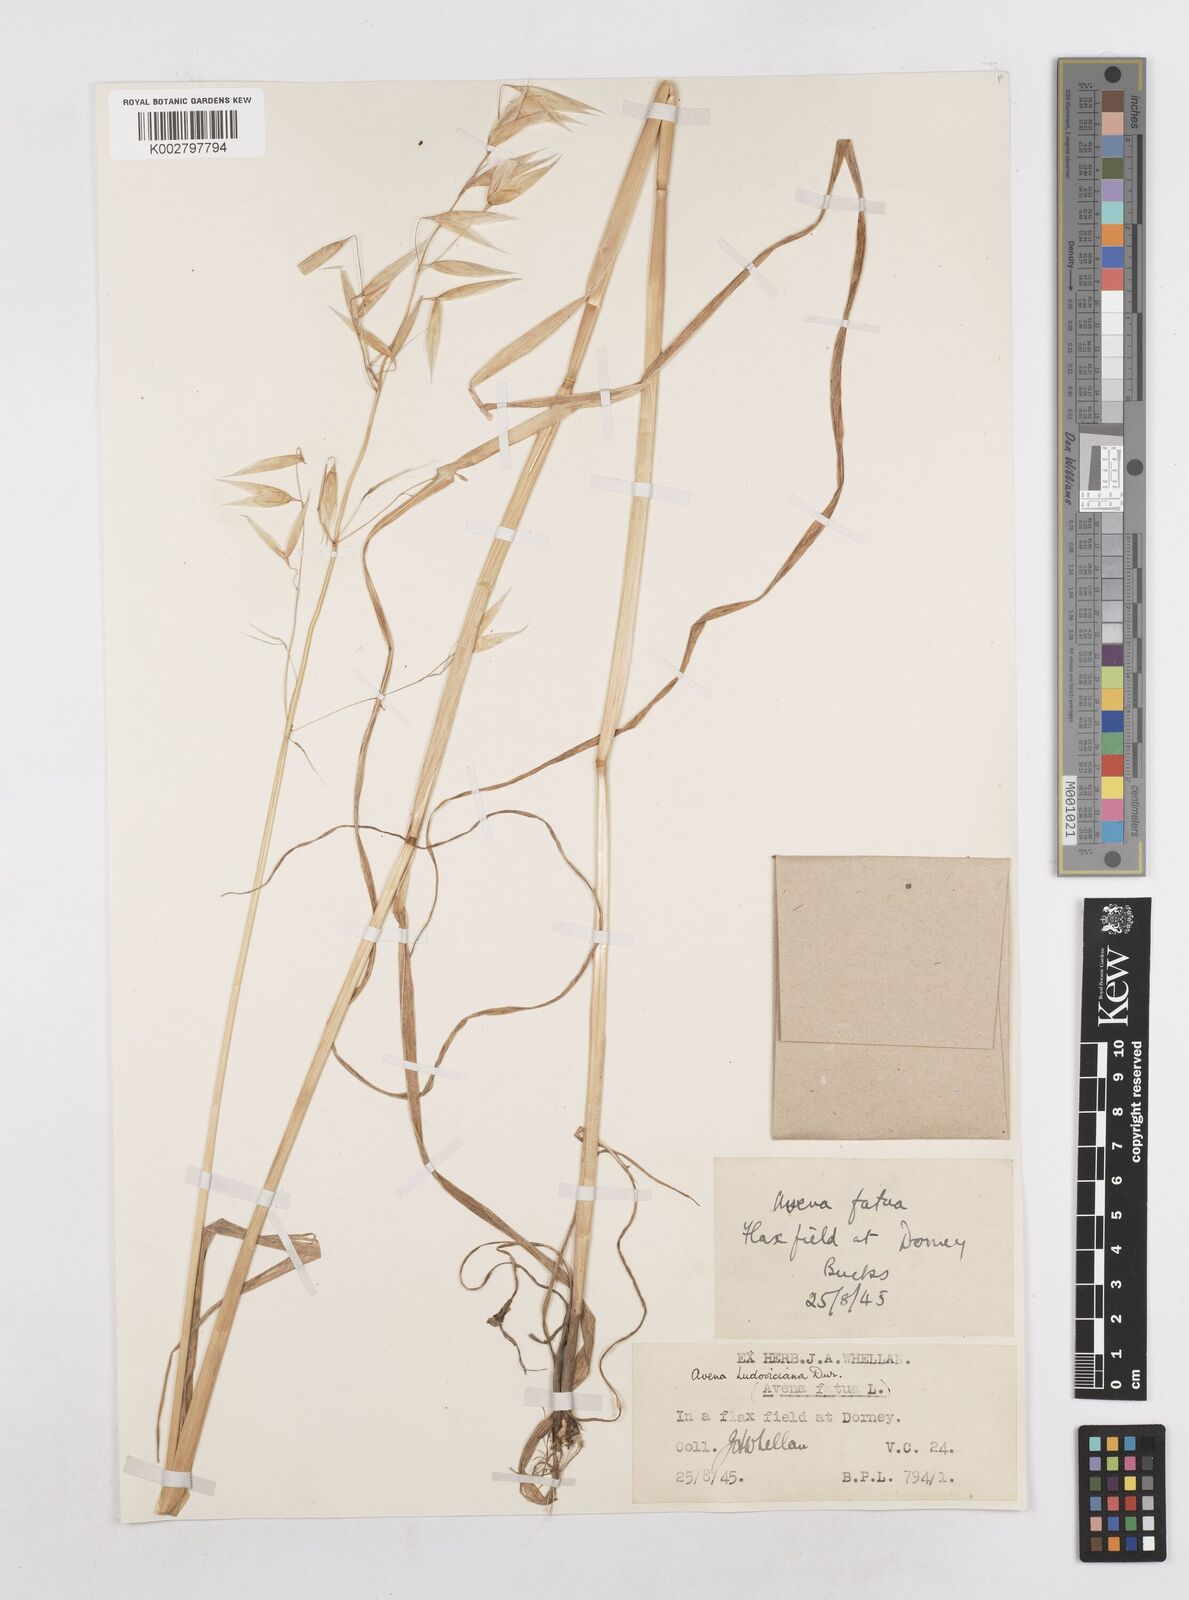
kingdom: Plantae
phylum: Tracheophyta
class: Liliopsida
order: Poales
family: Poaceae
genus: Avena
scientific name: Avena sterilis
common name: Animated oat
